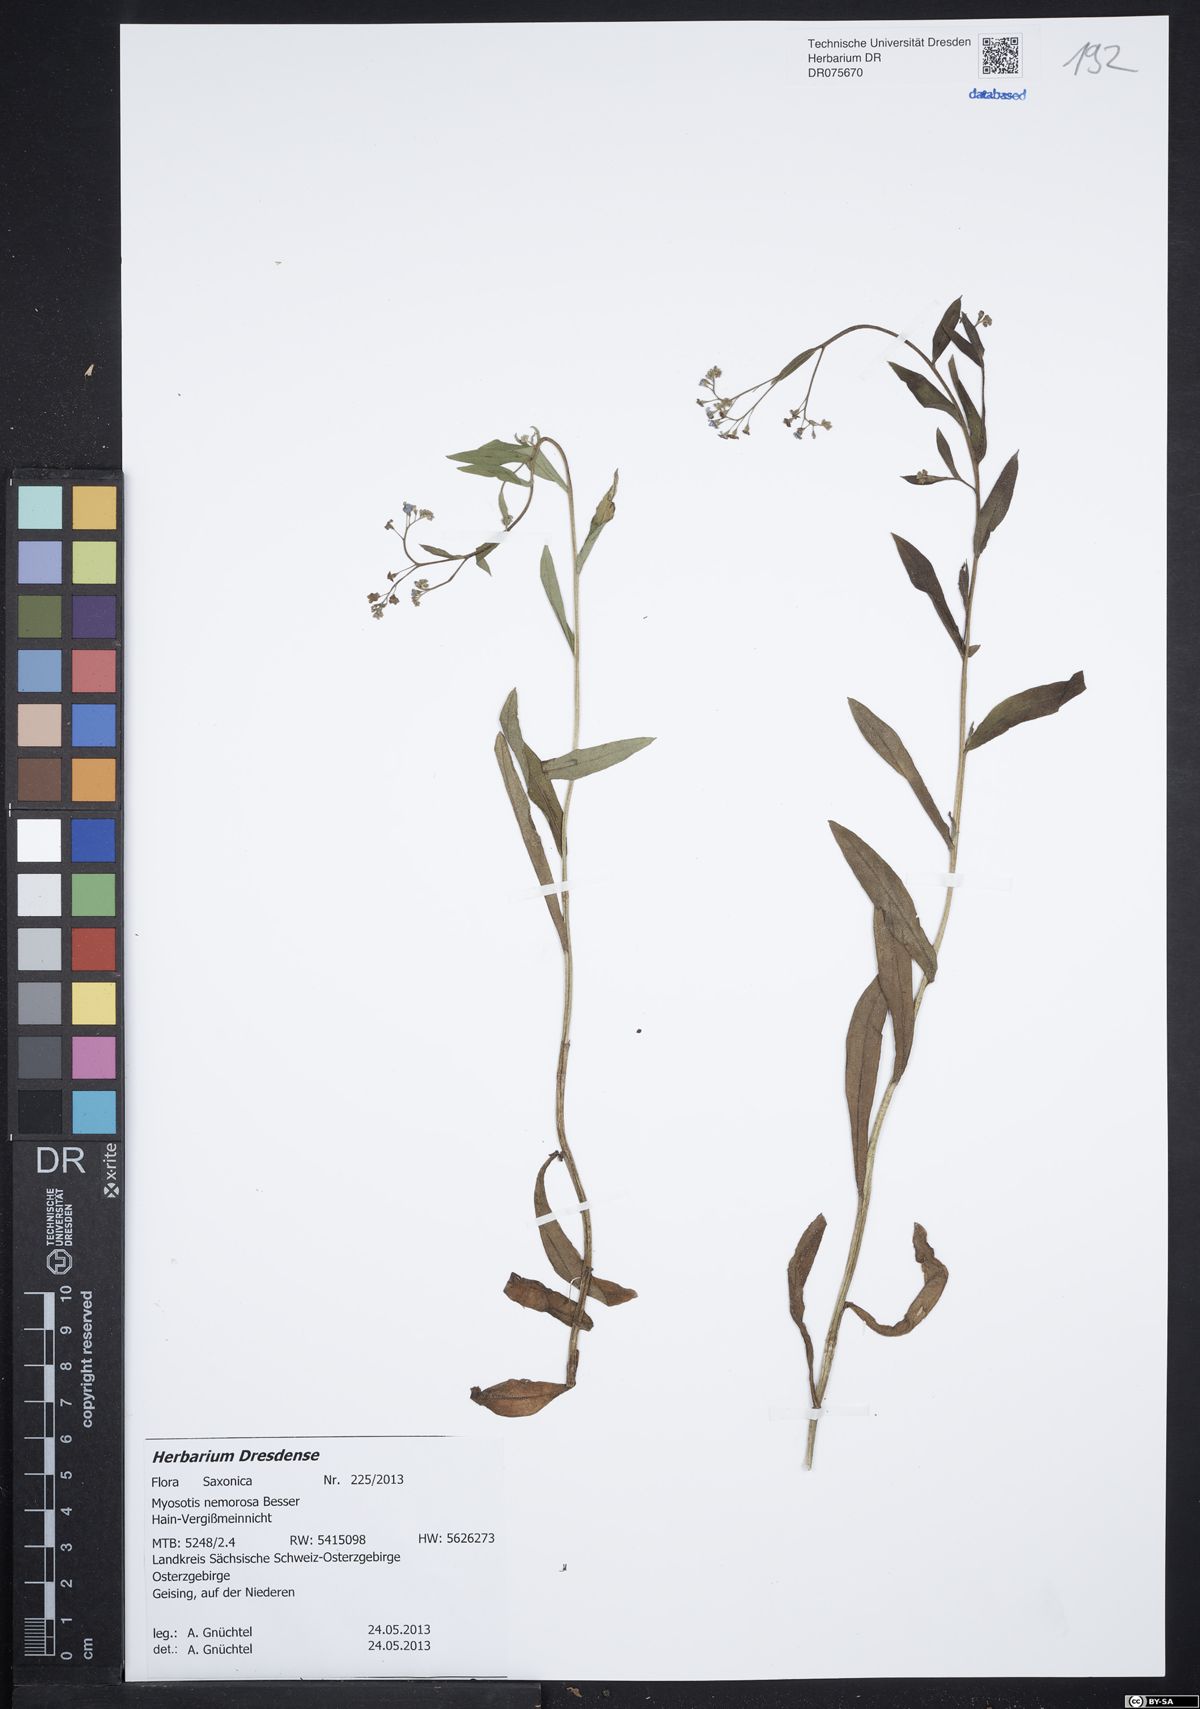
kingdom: Plantae
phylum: Tracheophyta
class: Magnoliopsida
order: Boraginales
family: Boraginaceae
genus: Myosotis
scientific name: Myosotis nemorosa
